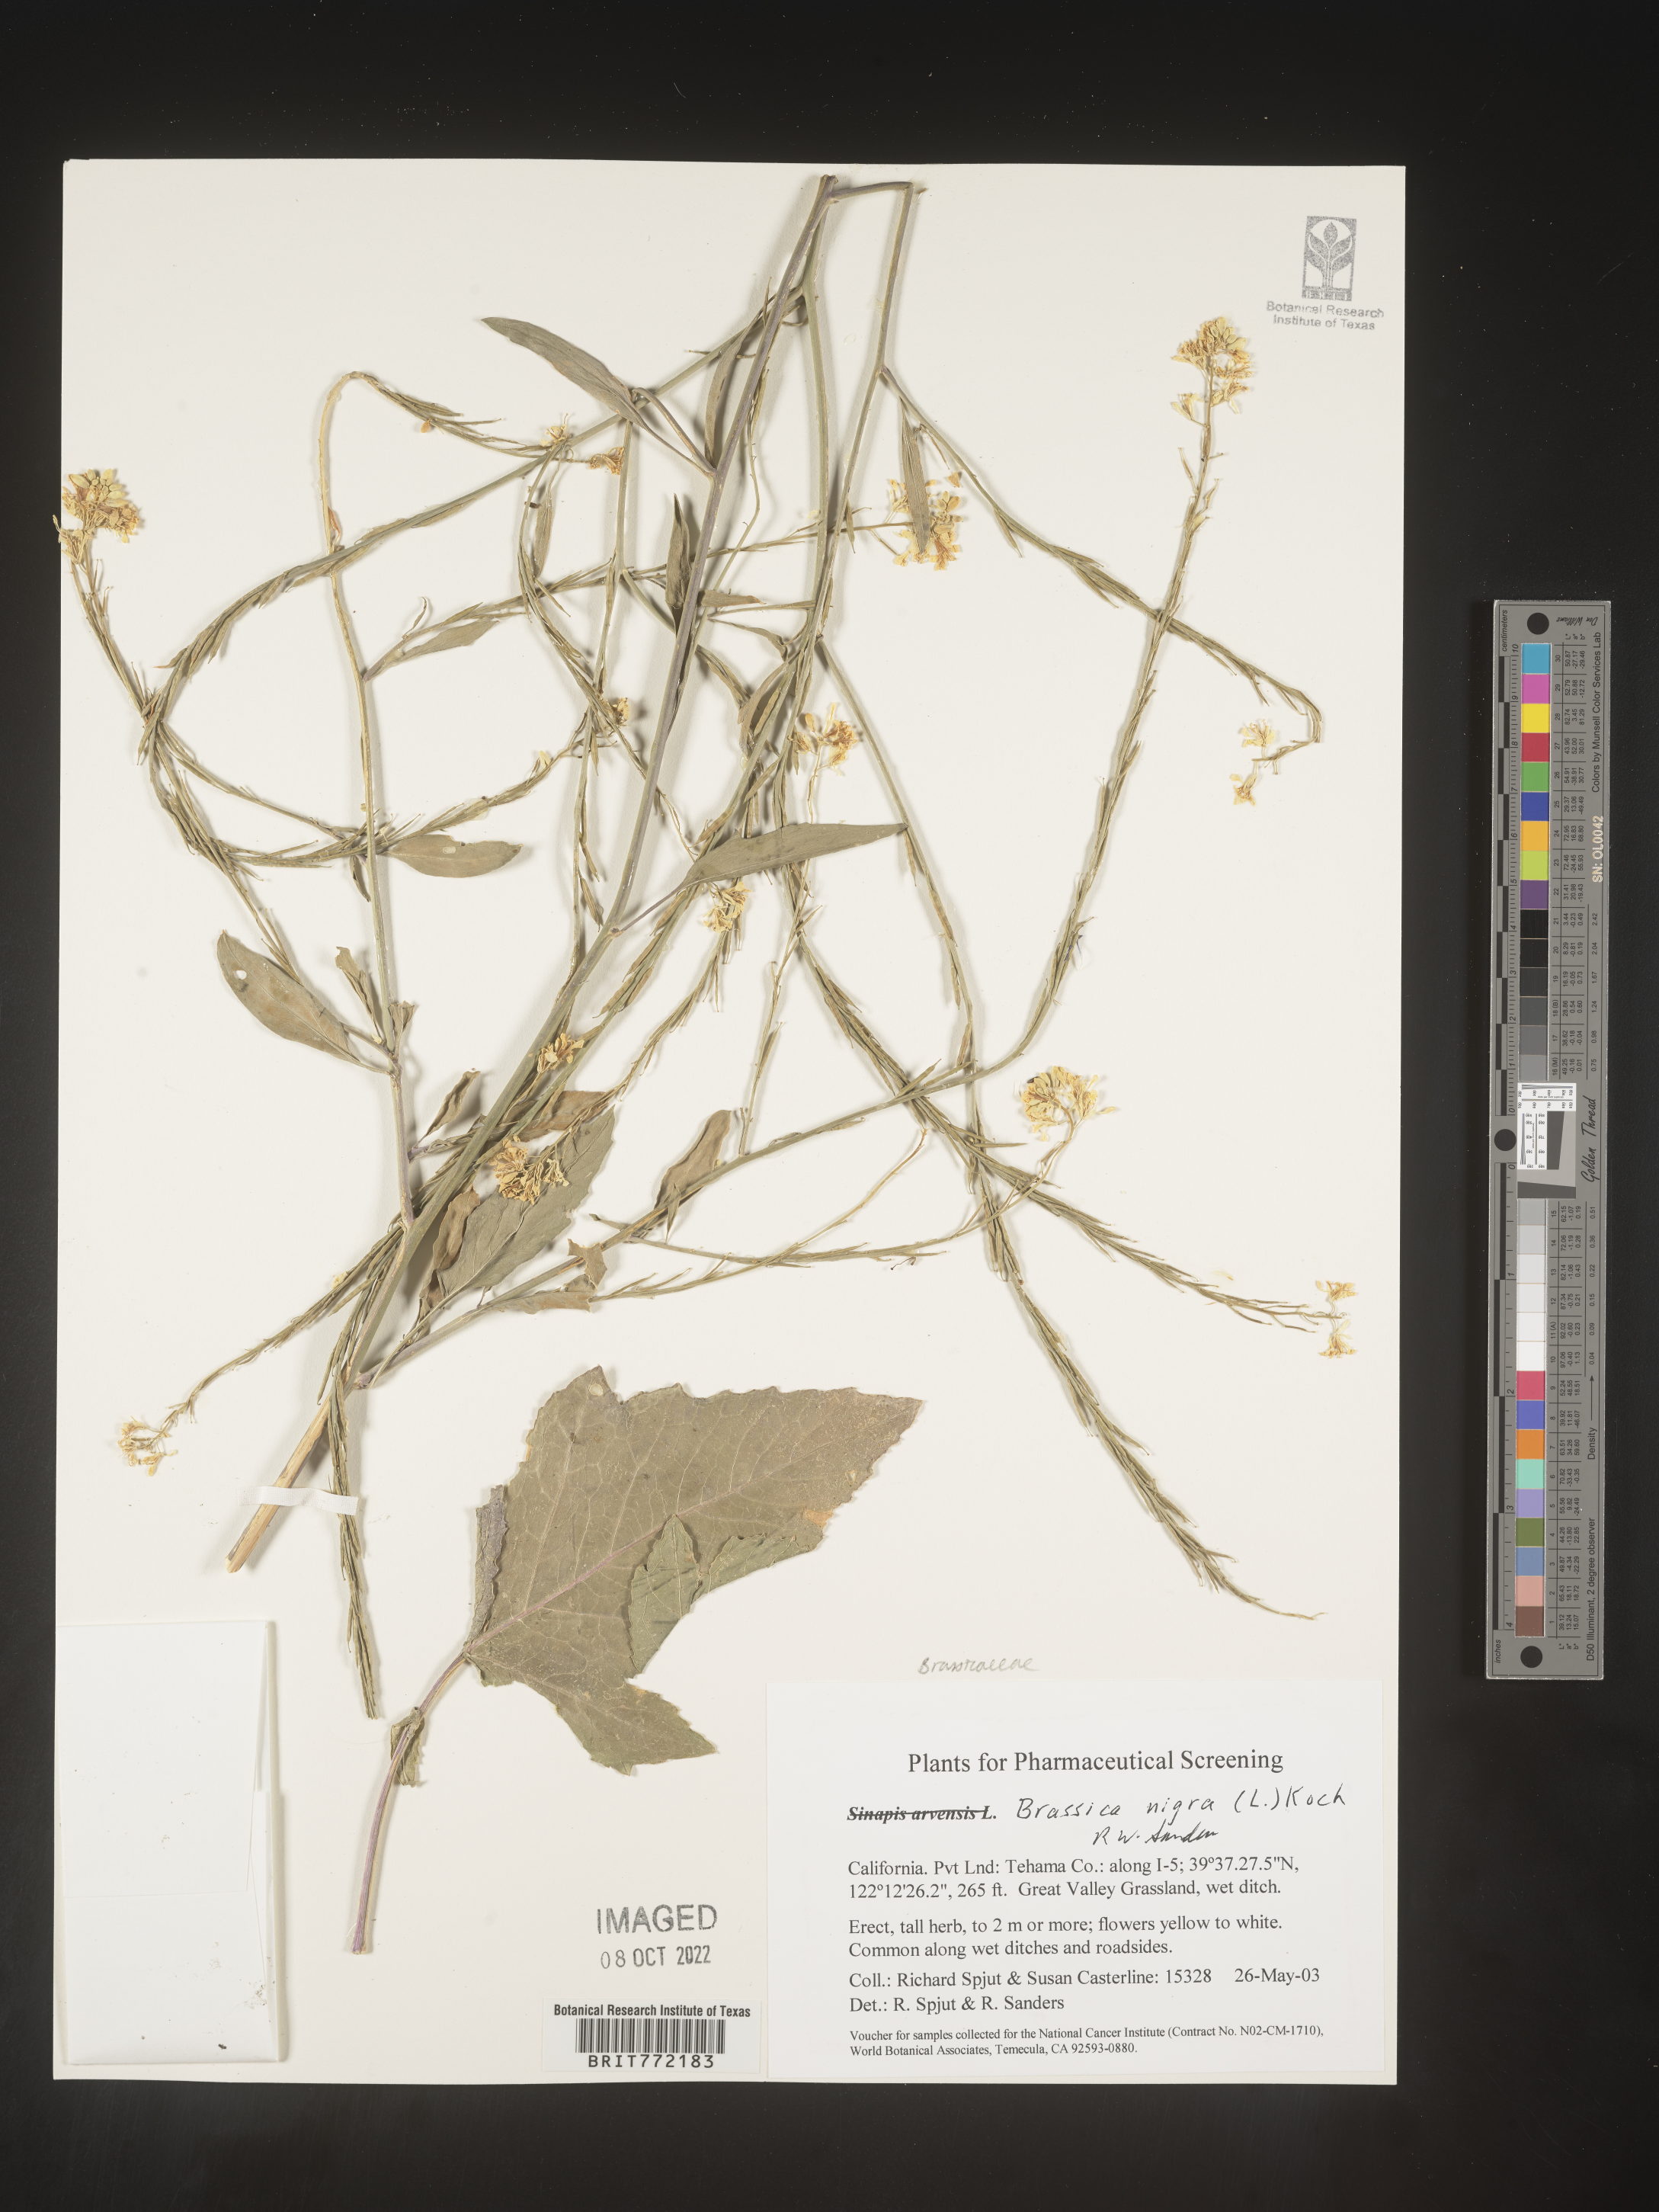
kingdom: Plantae
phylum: Tracheophyta
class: Magnoliopsida
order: Brassicales
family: Brassicaceae
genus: Brassica
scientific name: Brassica nigra
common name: Black mustard
